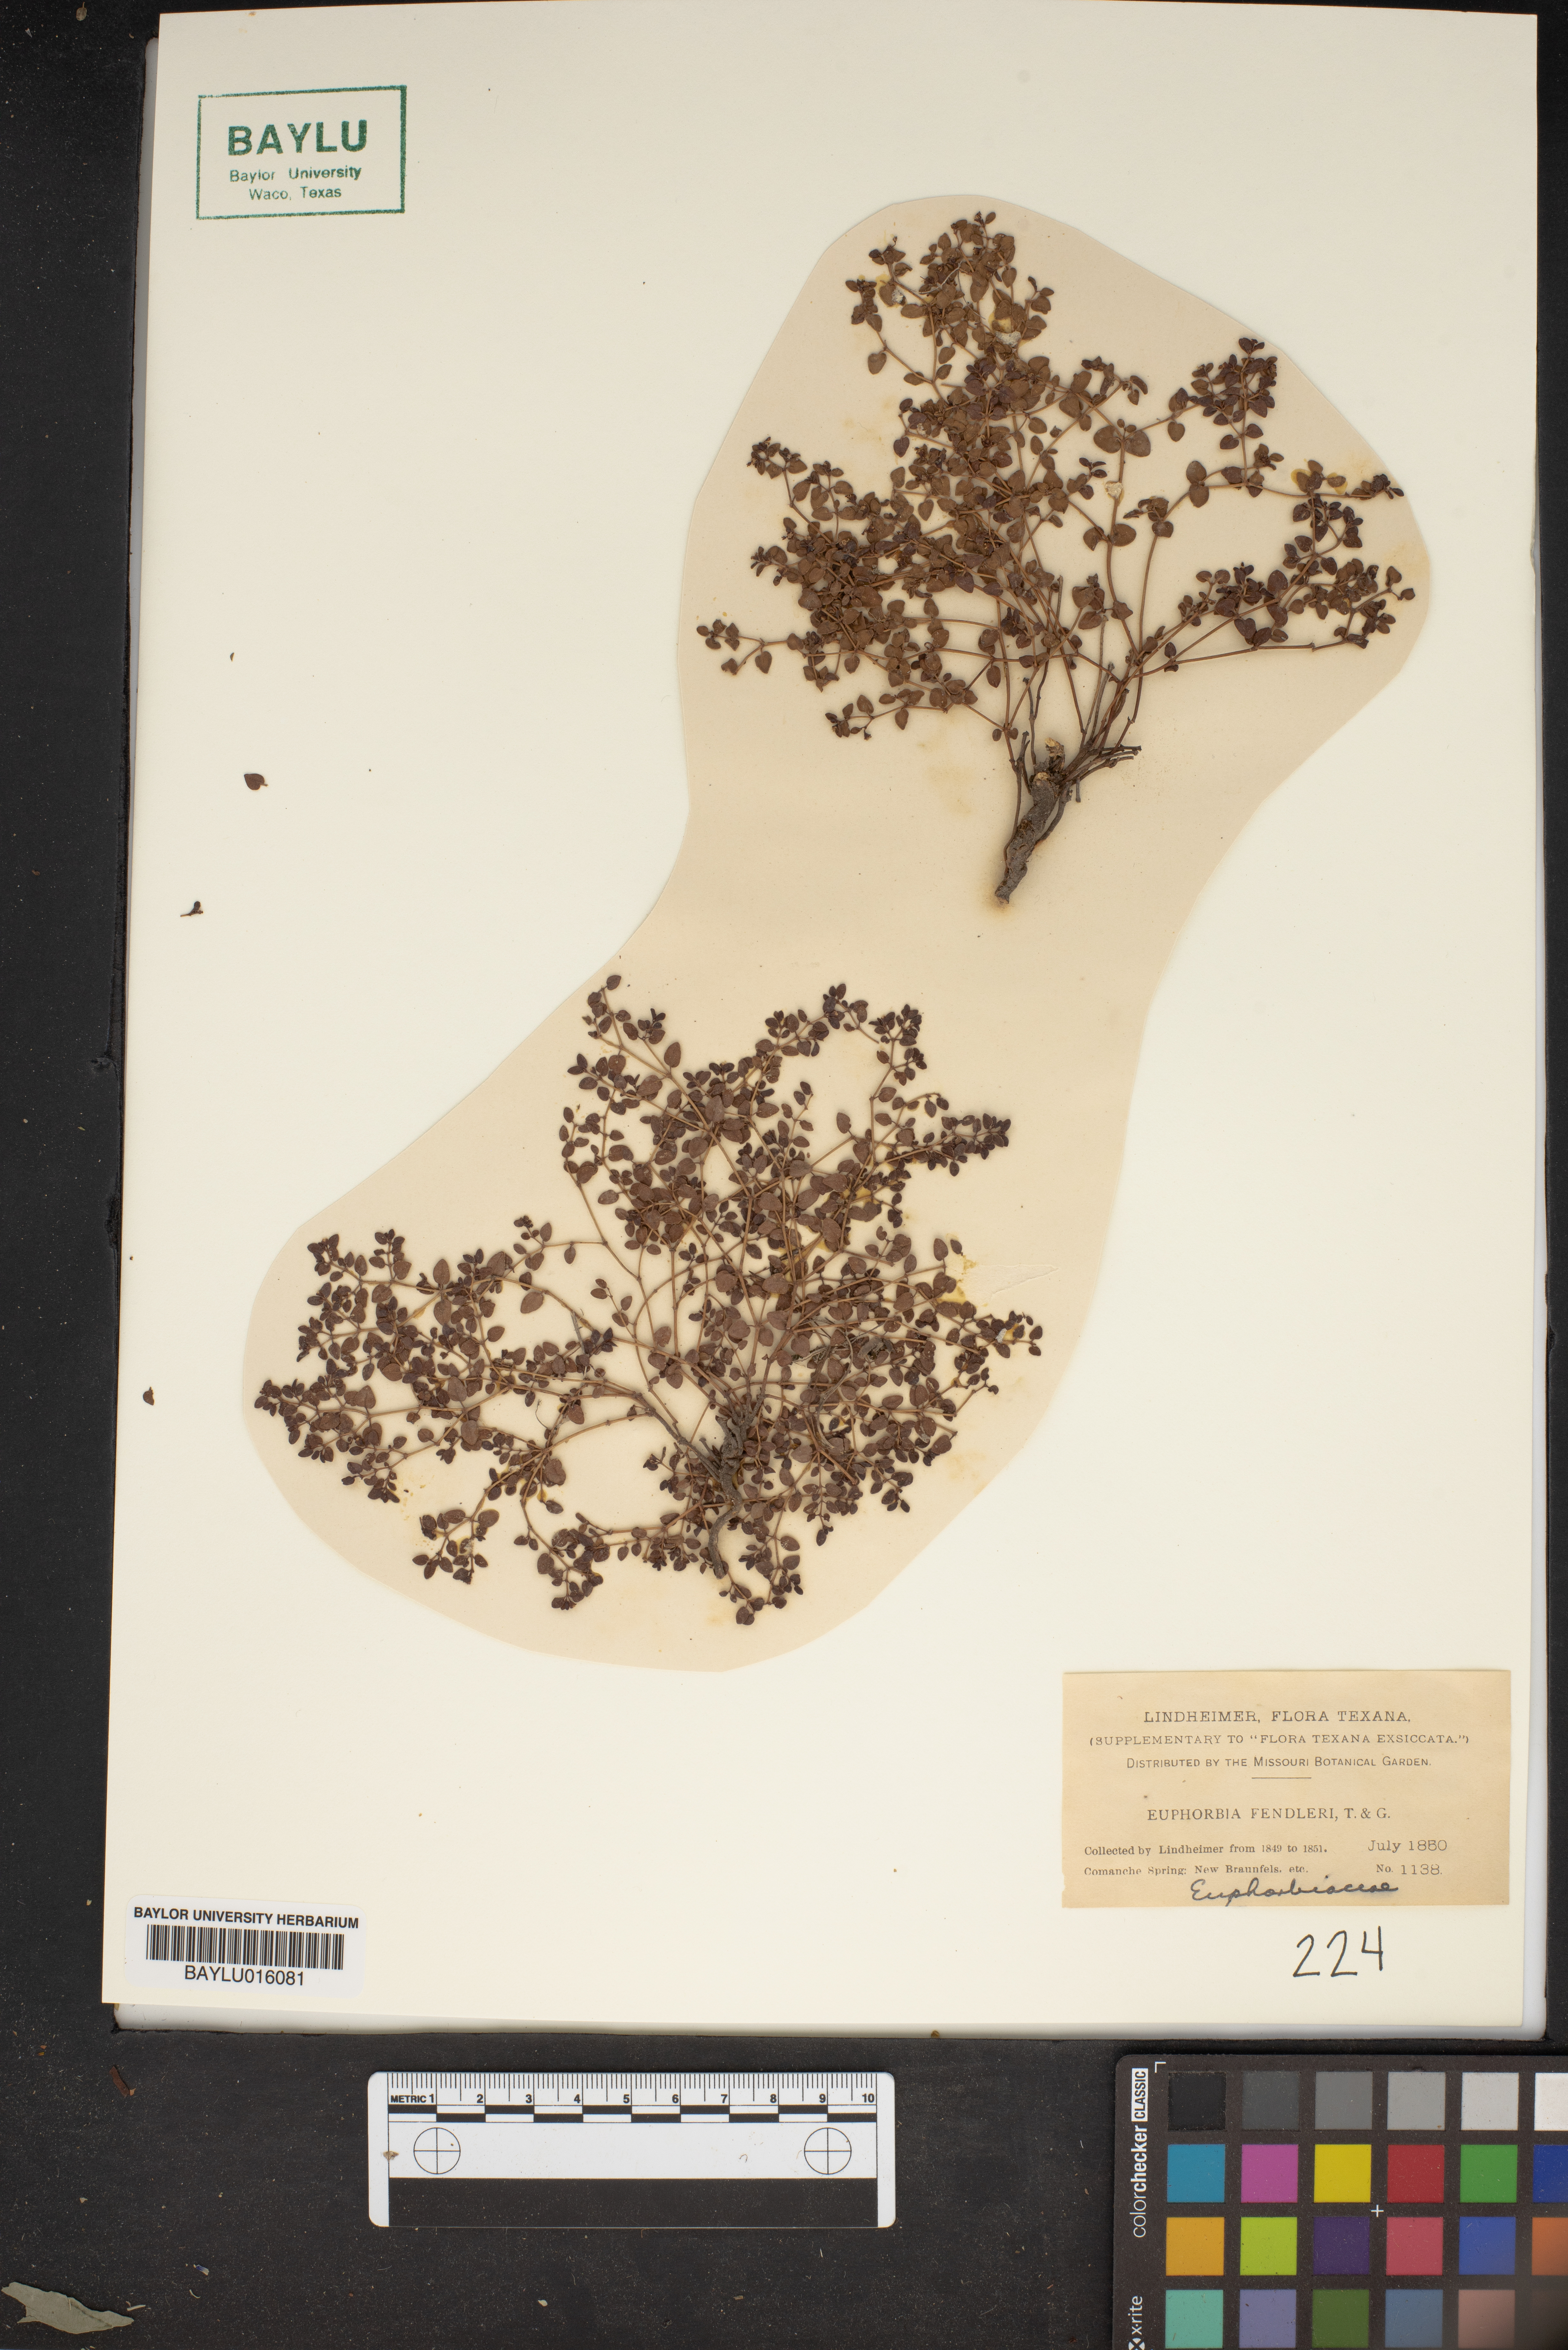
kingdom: Plantae
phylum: Tracheophyta
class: Magnoliopsida
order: Malpighiales
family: Euphorbiaceae
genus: Euphorbia
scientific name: Euphorbia fendleri
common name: Fendler's euphorbia
